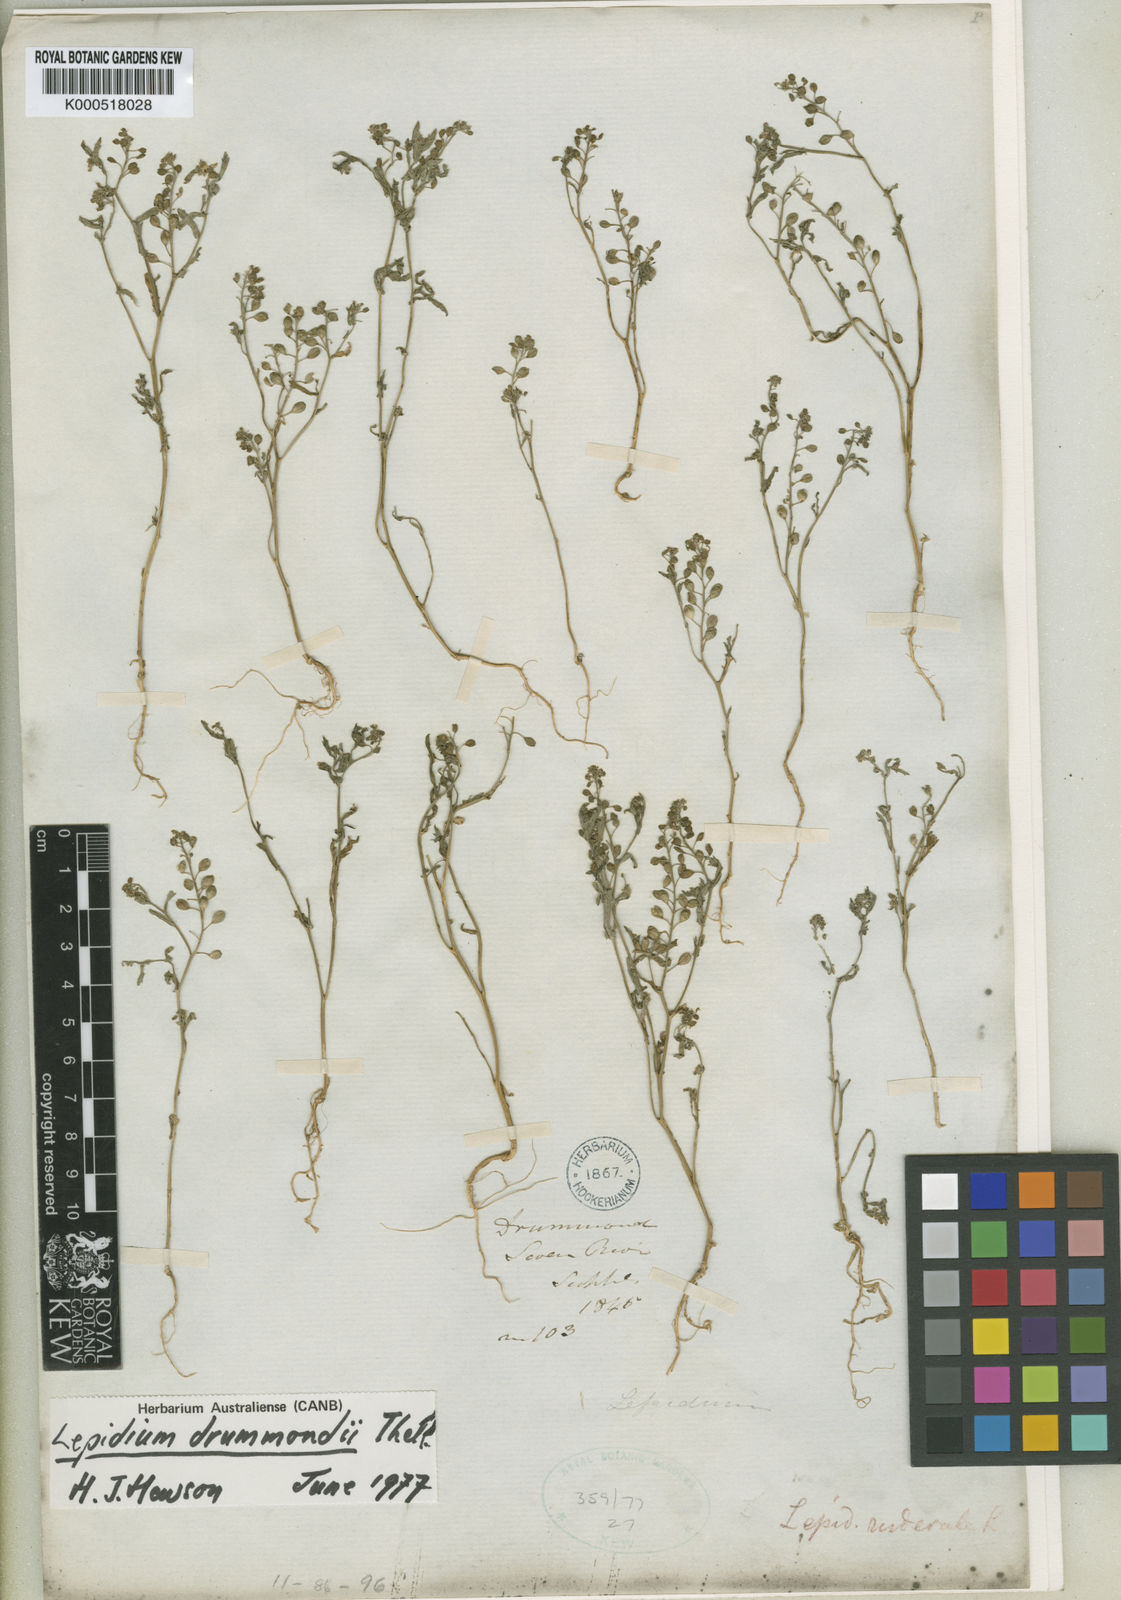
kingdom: Plantae
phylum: Tracheophyta
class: Magnoliopsida
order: Brassicales
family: Brassicaceae
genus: Lepidium
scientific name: Lepidium drummondii
